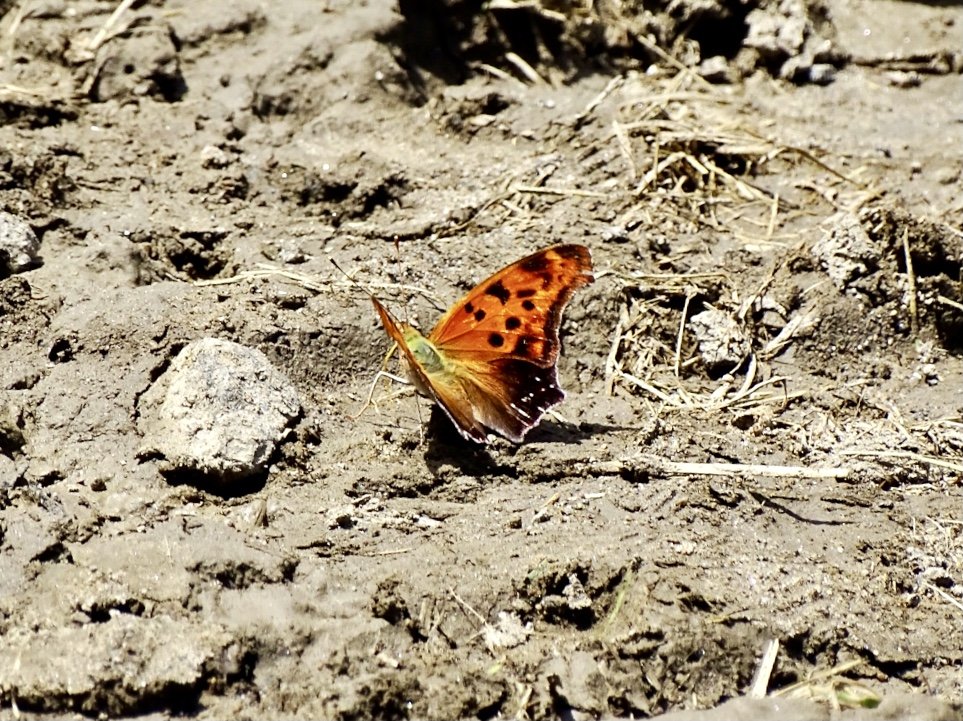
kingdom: Animalia
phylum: Arthropoda
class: Insecta
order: Lepidoptera
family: Nymphalidae
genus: Polygonia
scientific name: Polygonia interrogationis
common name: Question Mark
